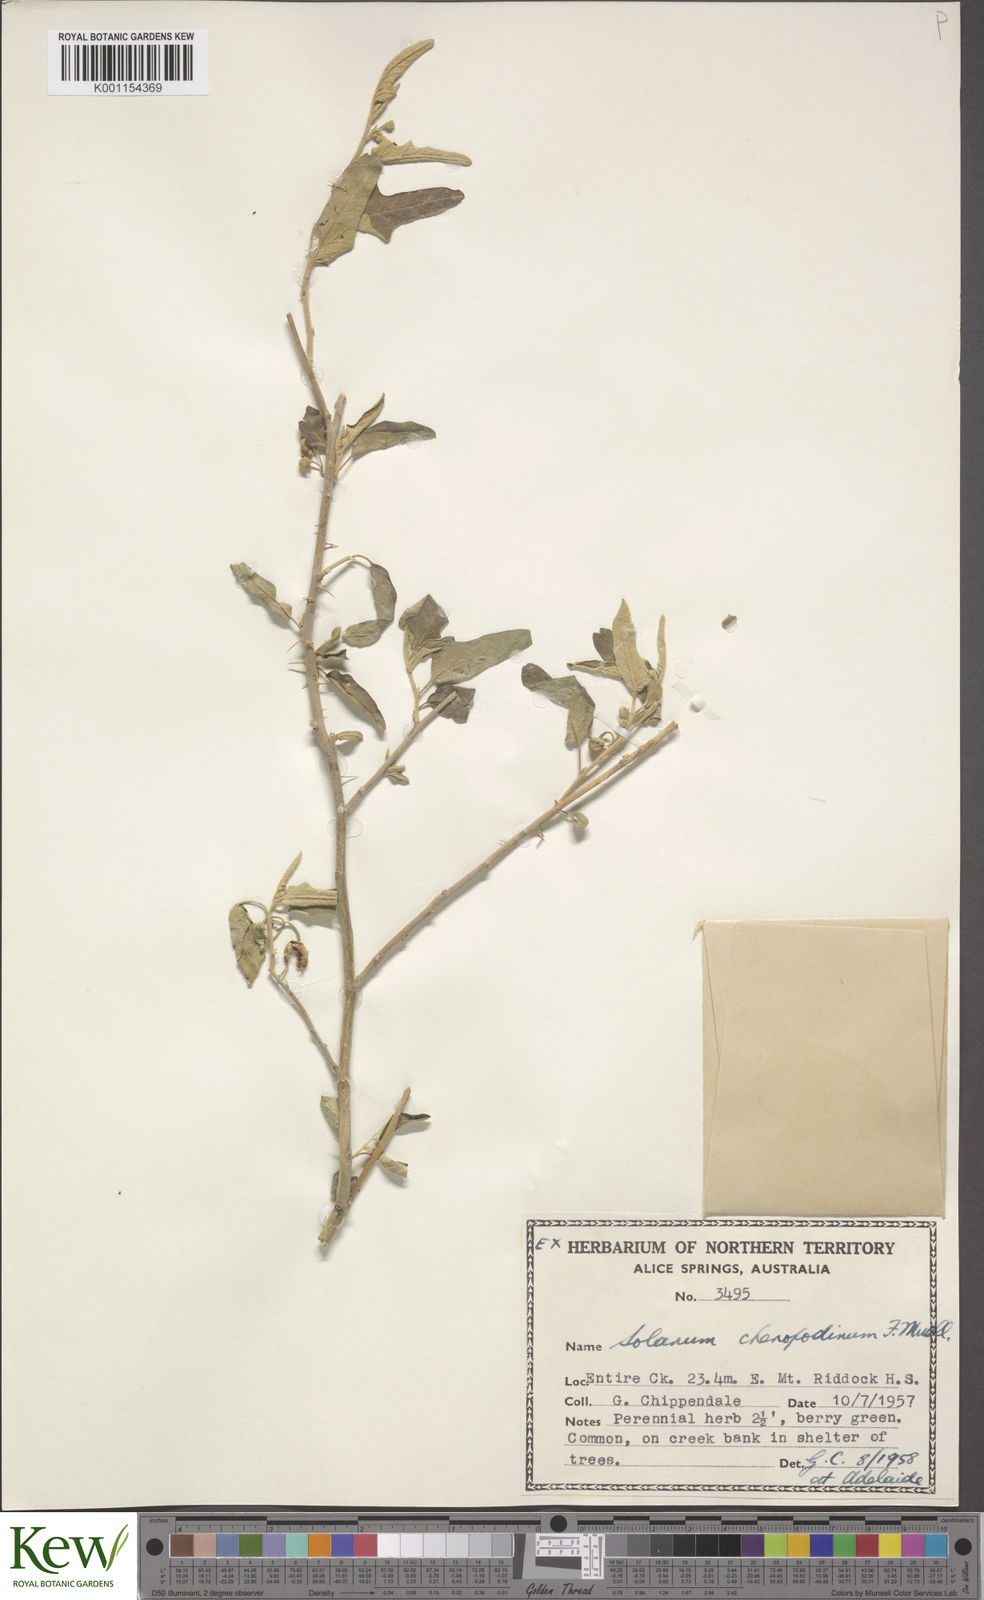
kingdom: Plantae
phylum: Tracheophyta
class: Magnoliopsida
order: Solanales
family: Solanaceae
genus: Solanum
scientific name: Solanum chenopodinum
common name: Goosefoot potato-bush
